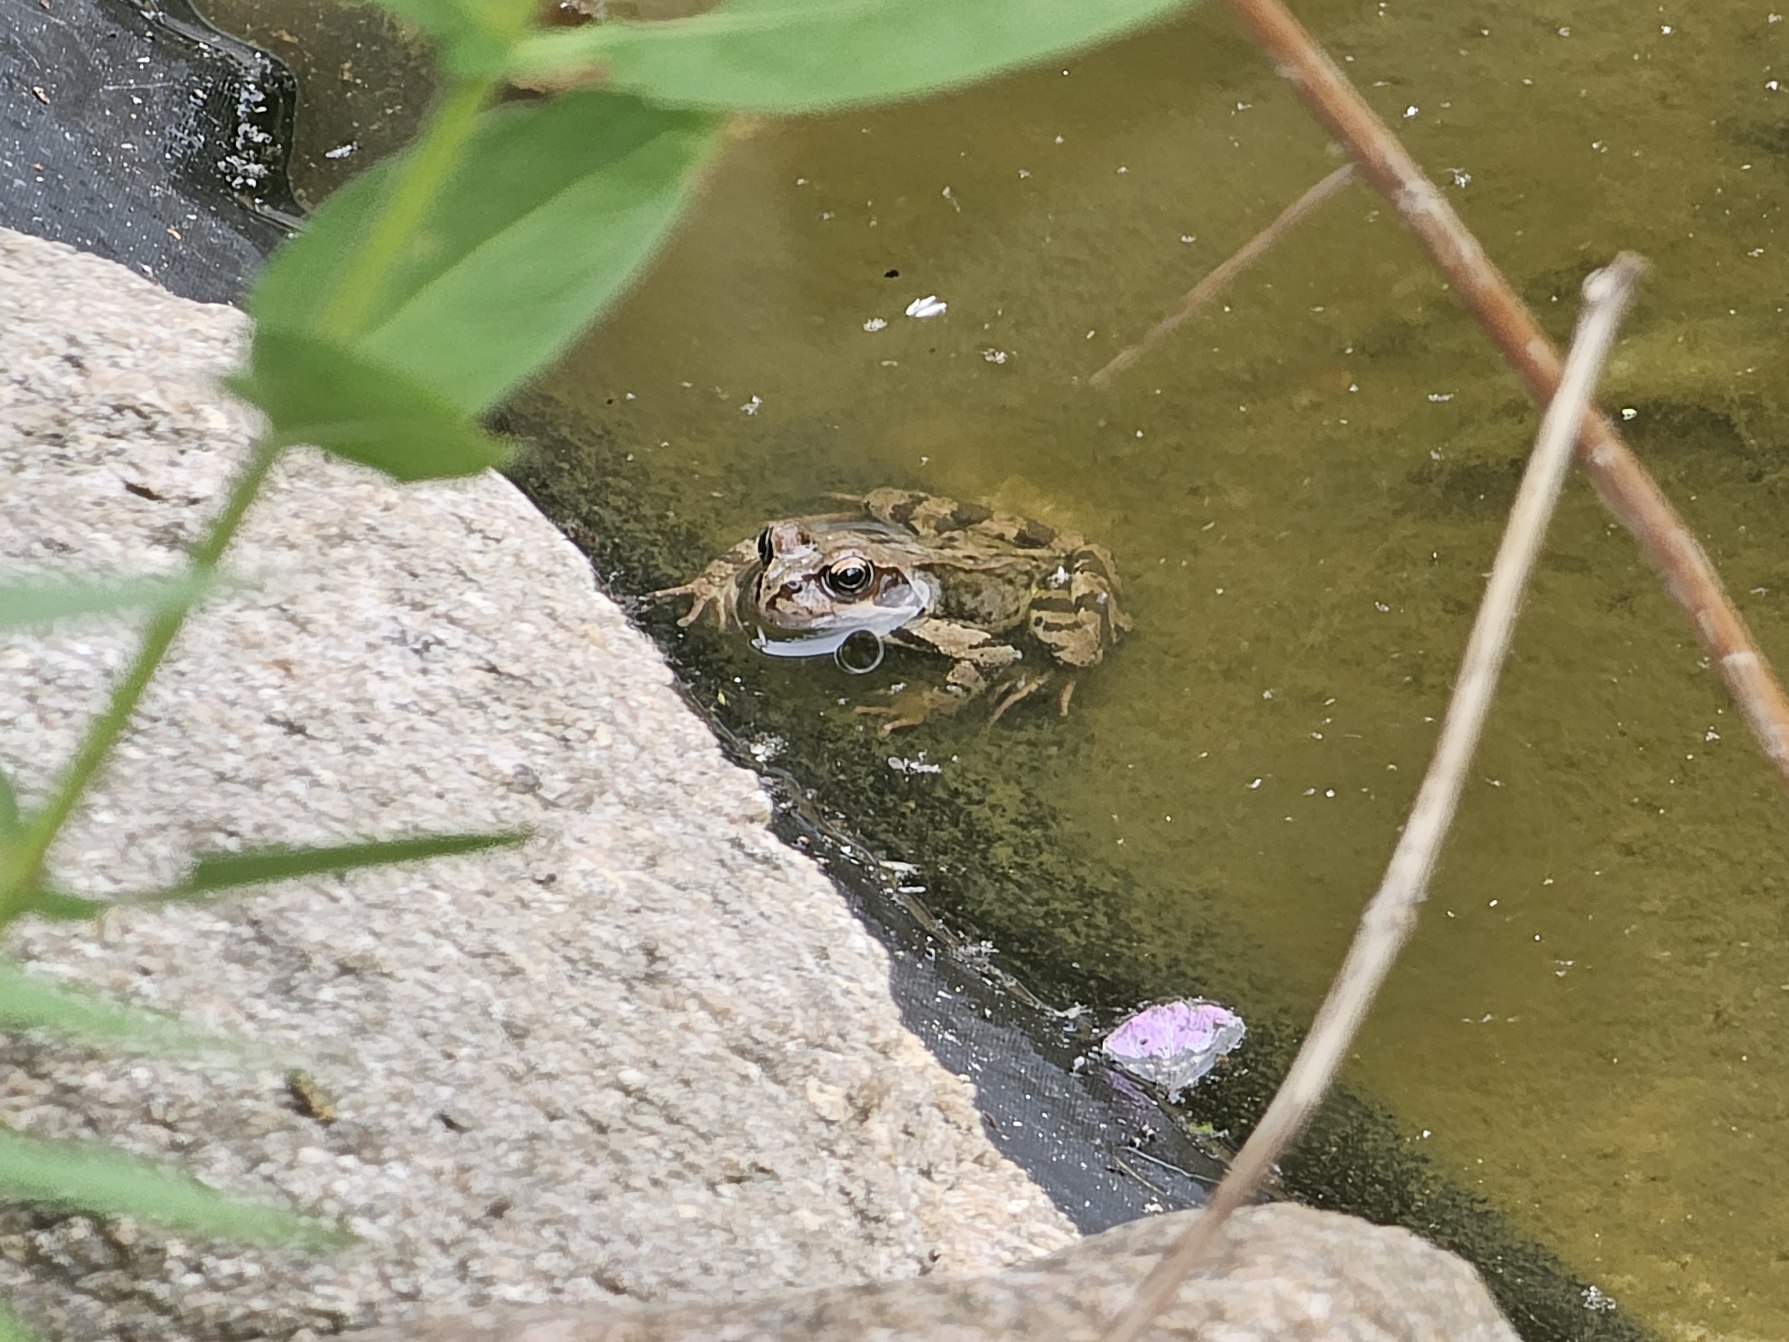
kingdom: Animalia
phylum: Chordata
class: Amphibia
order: Anura
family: Ranidae
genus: Rana
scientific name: Rana temporaria
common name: Butsnudet frø
